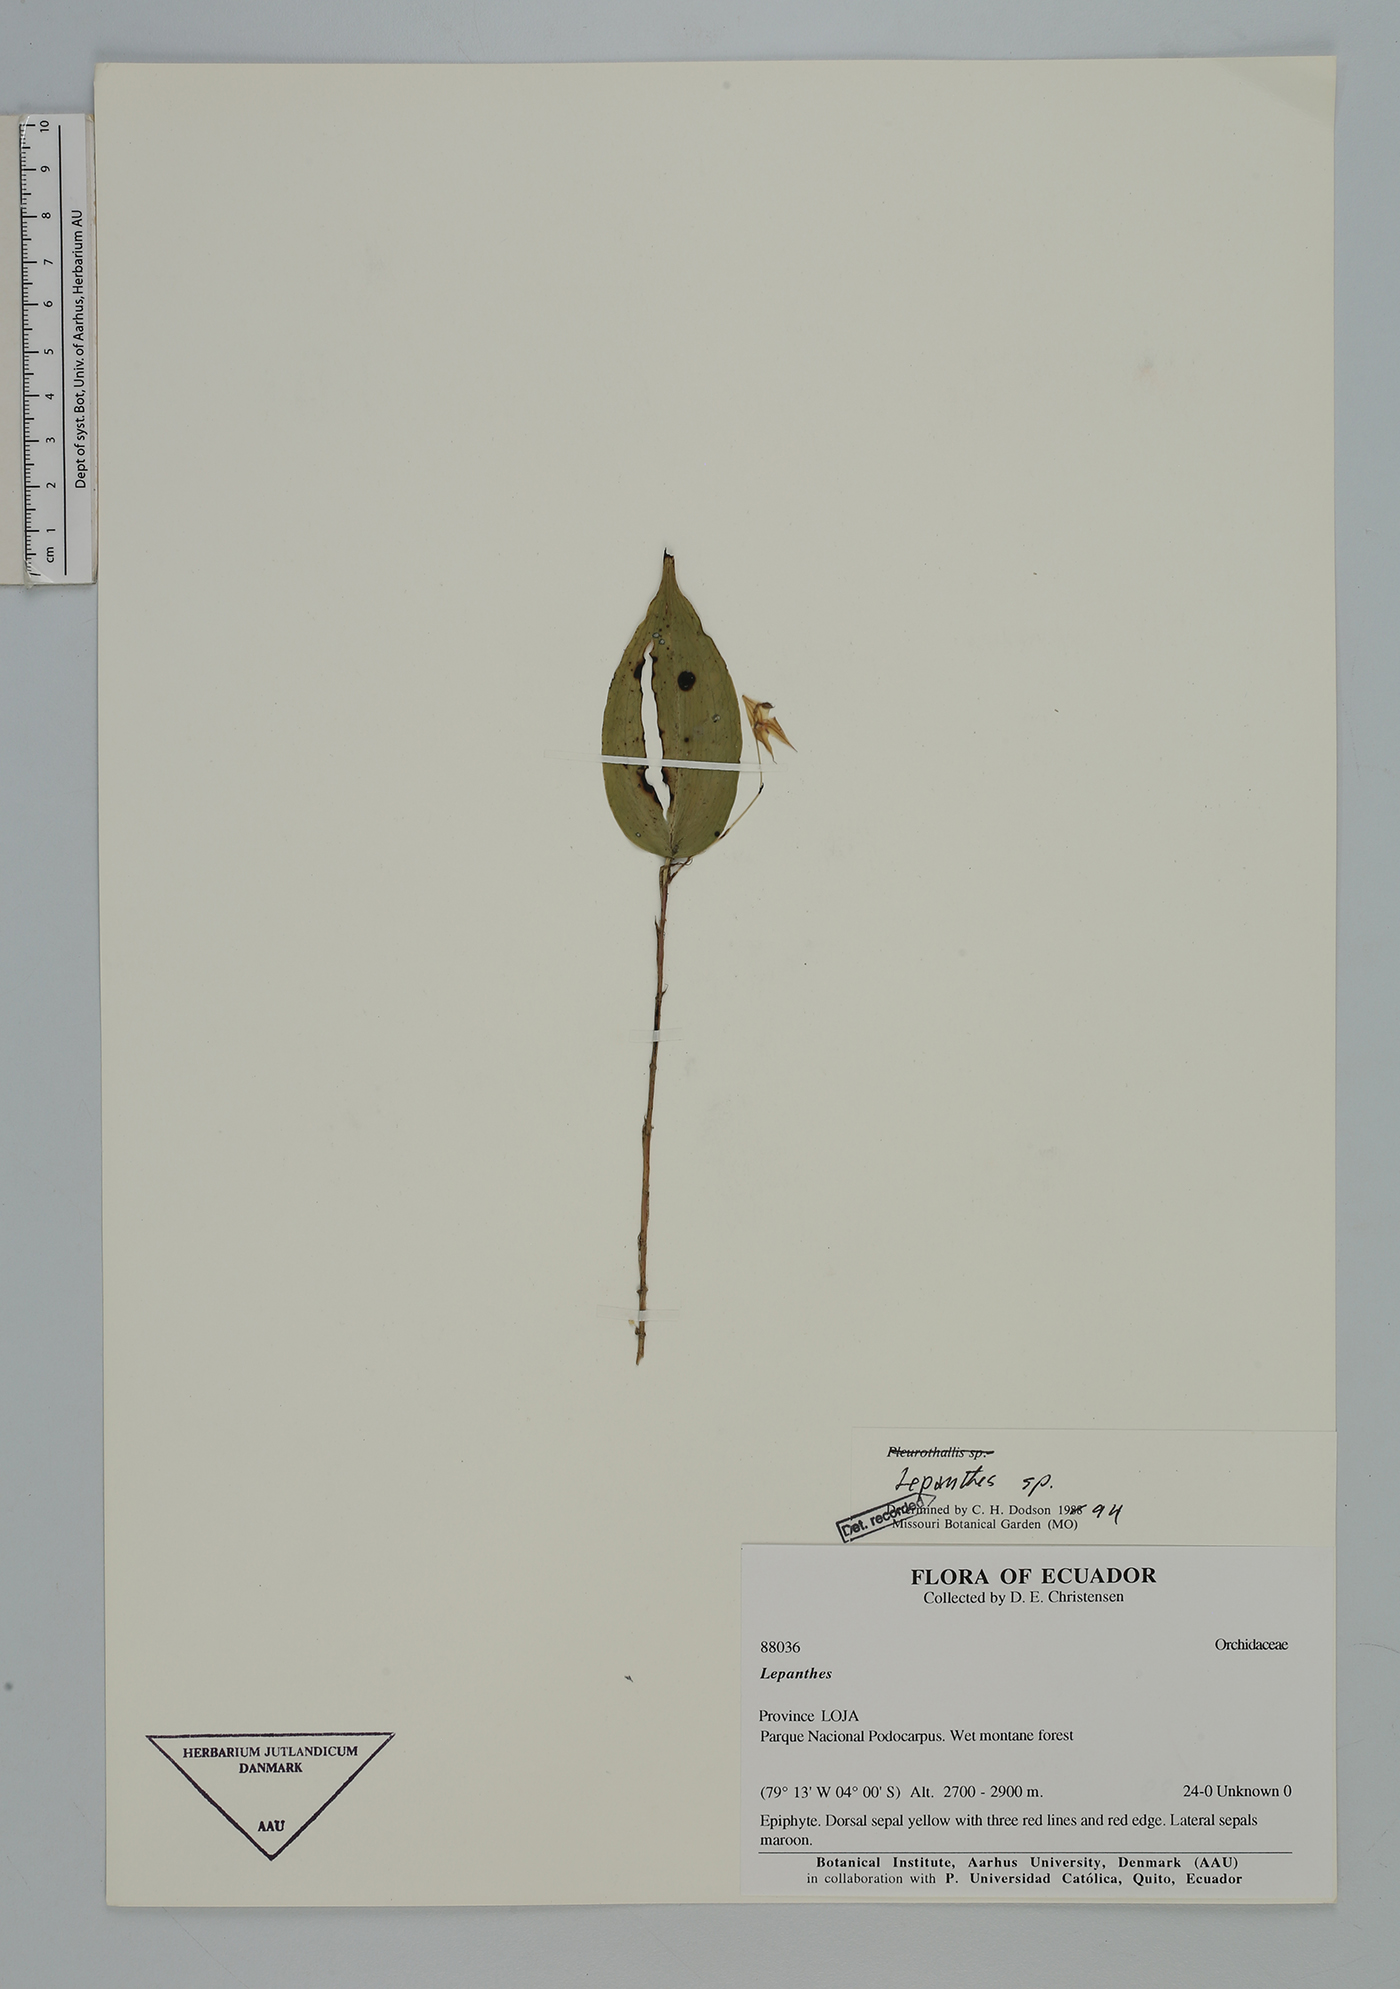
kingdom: Plantae
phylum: Tracheophyta
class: Liliopsida
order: Asparagales
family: Orchidaceae
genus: Lepanthes
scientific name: Lepanthes
